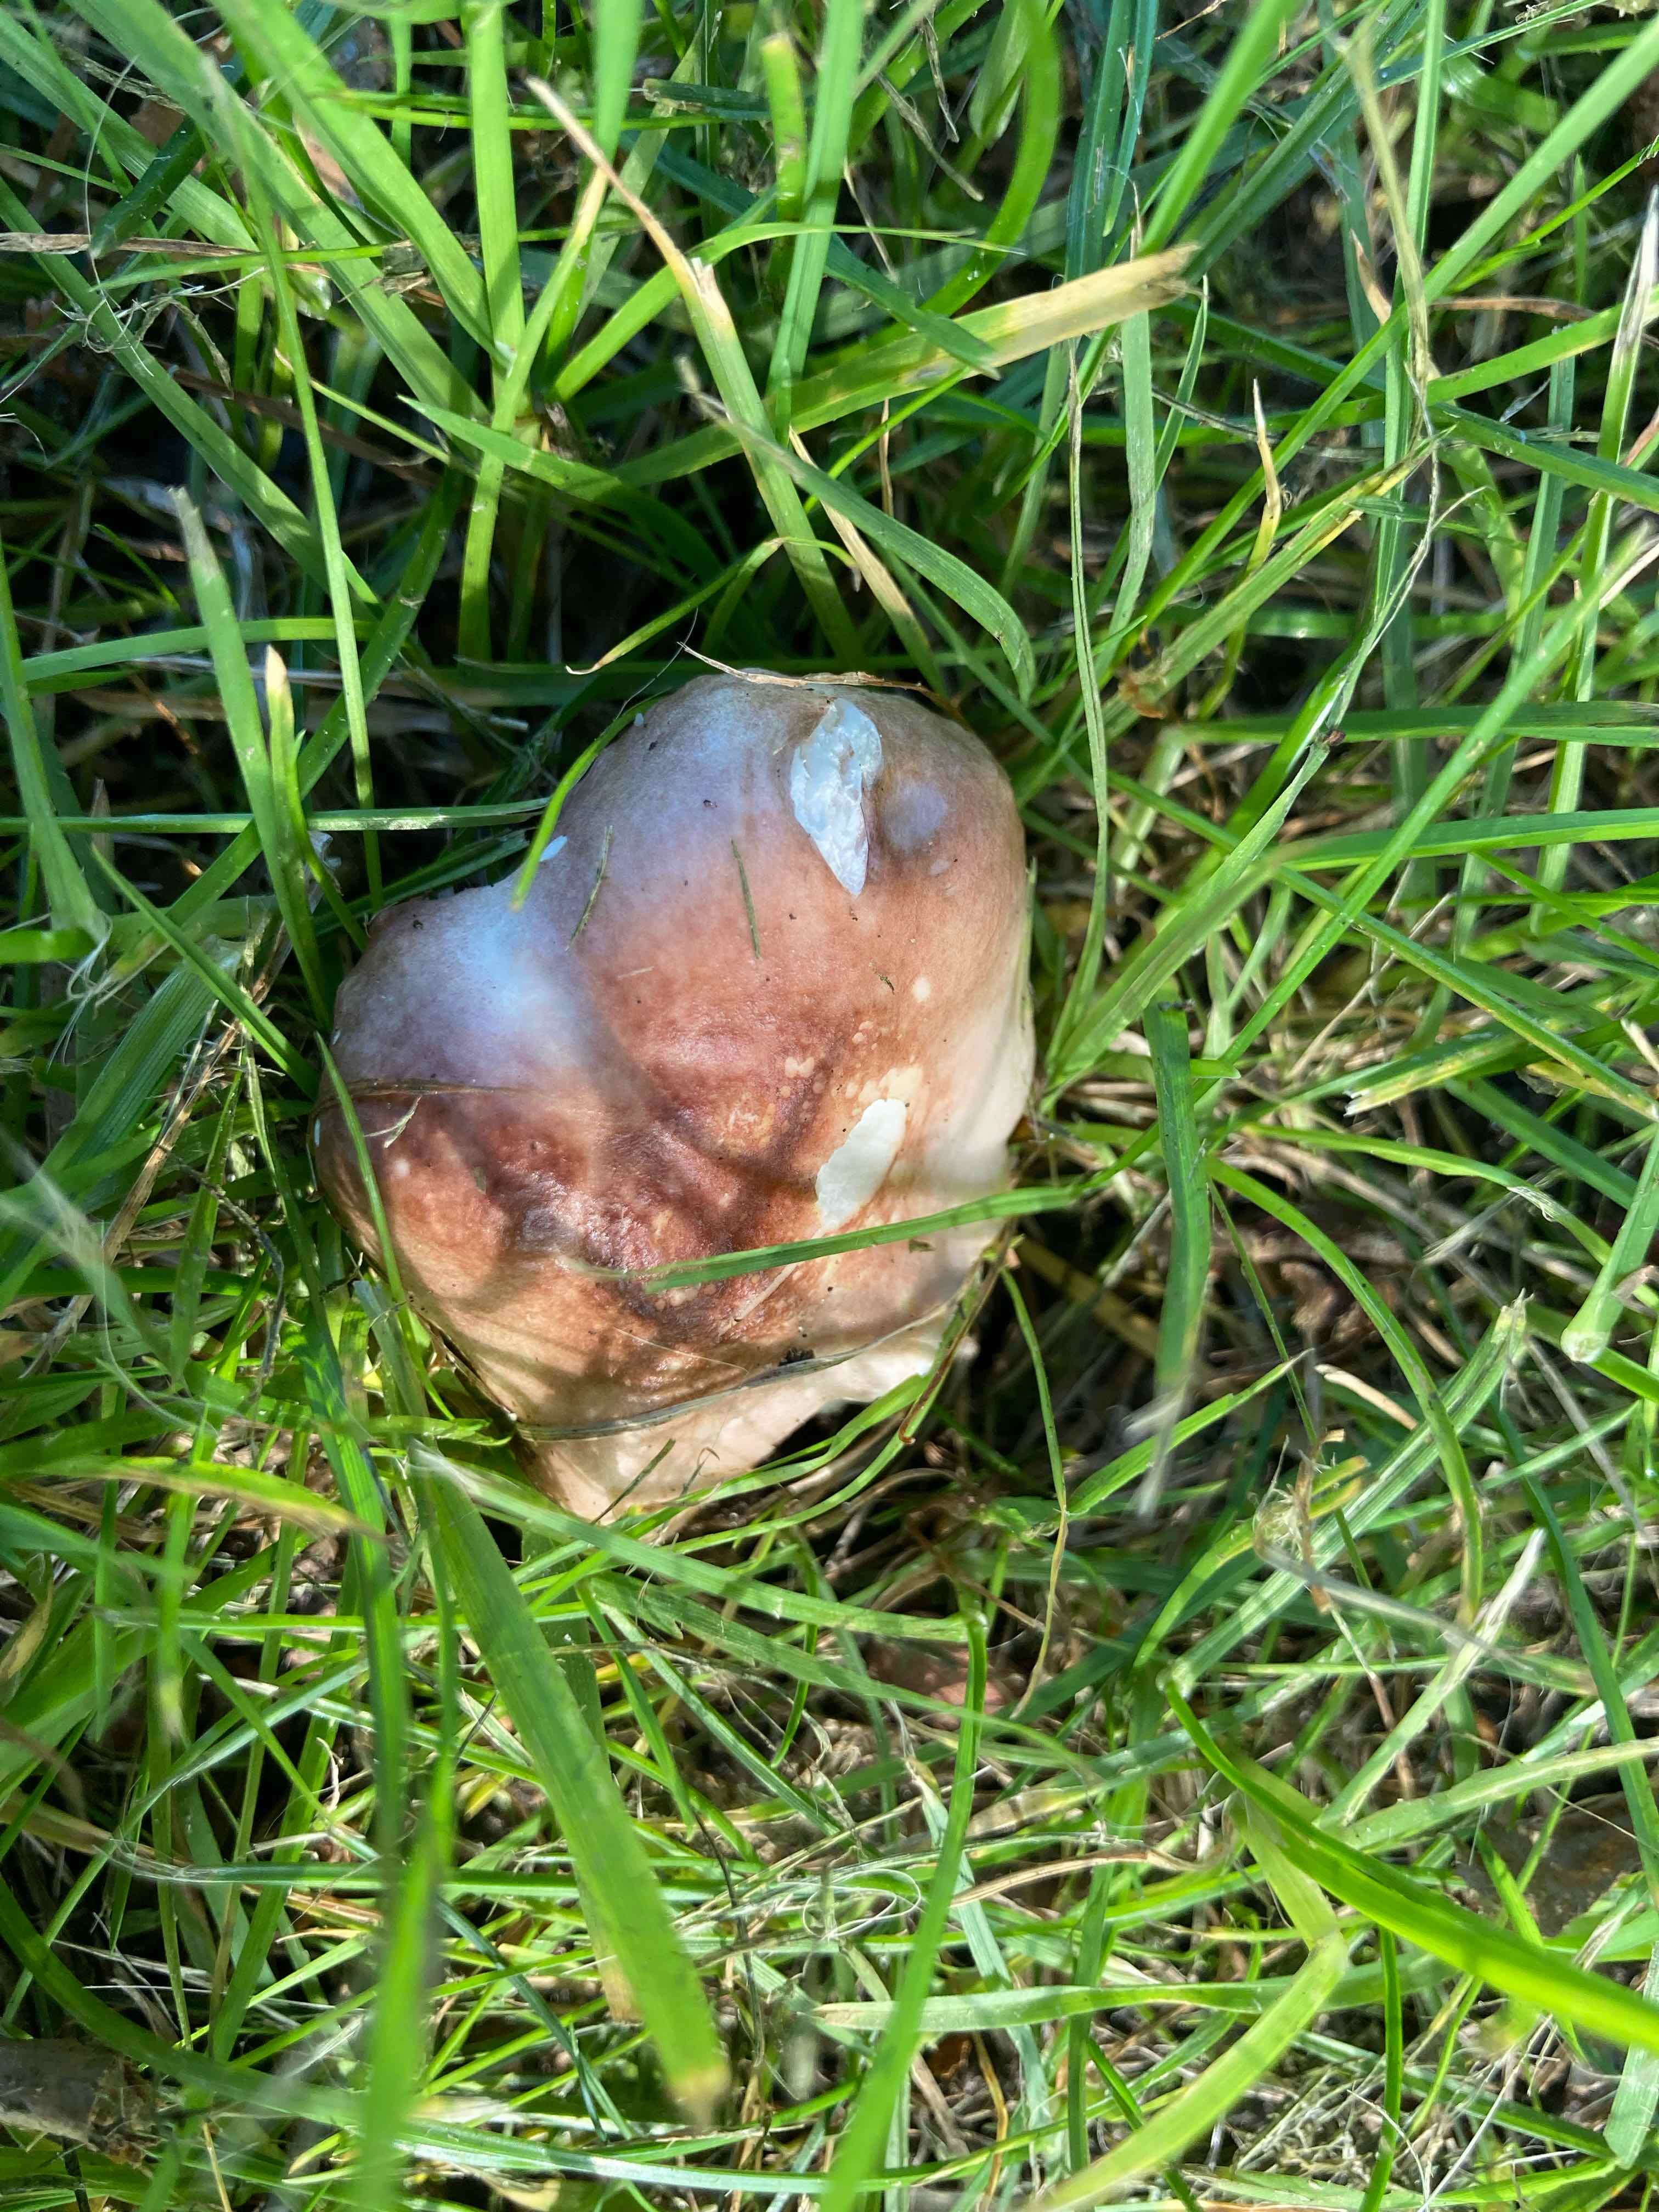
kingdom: Fungi
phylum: Basidiomycota
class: Agaricomycetes
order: Russulales
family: Russulaceae
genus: Russula
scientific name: Russula odorata
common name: duft-skørhat
